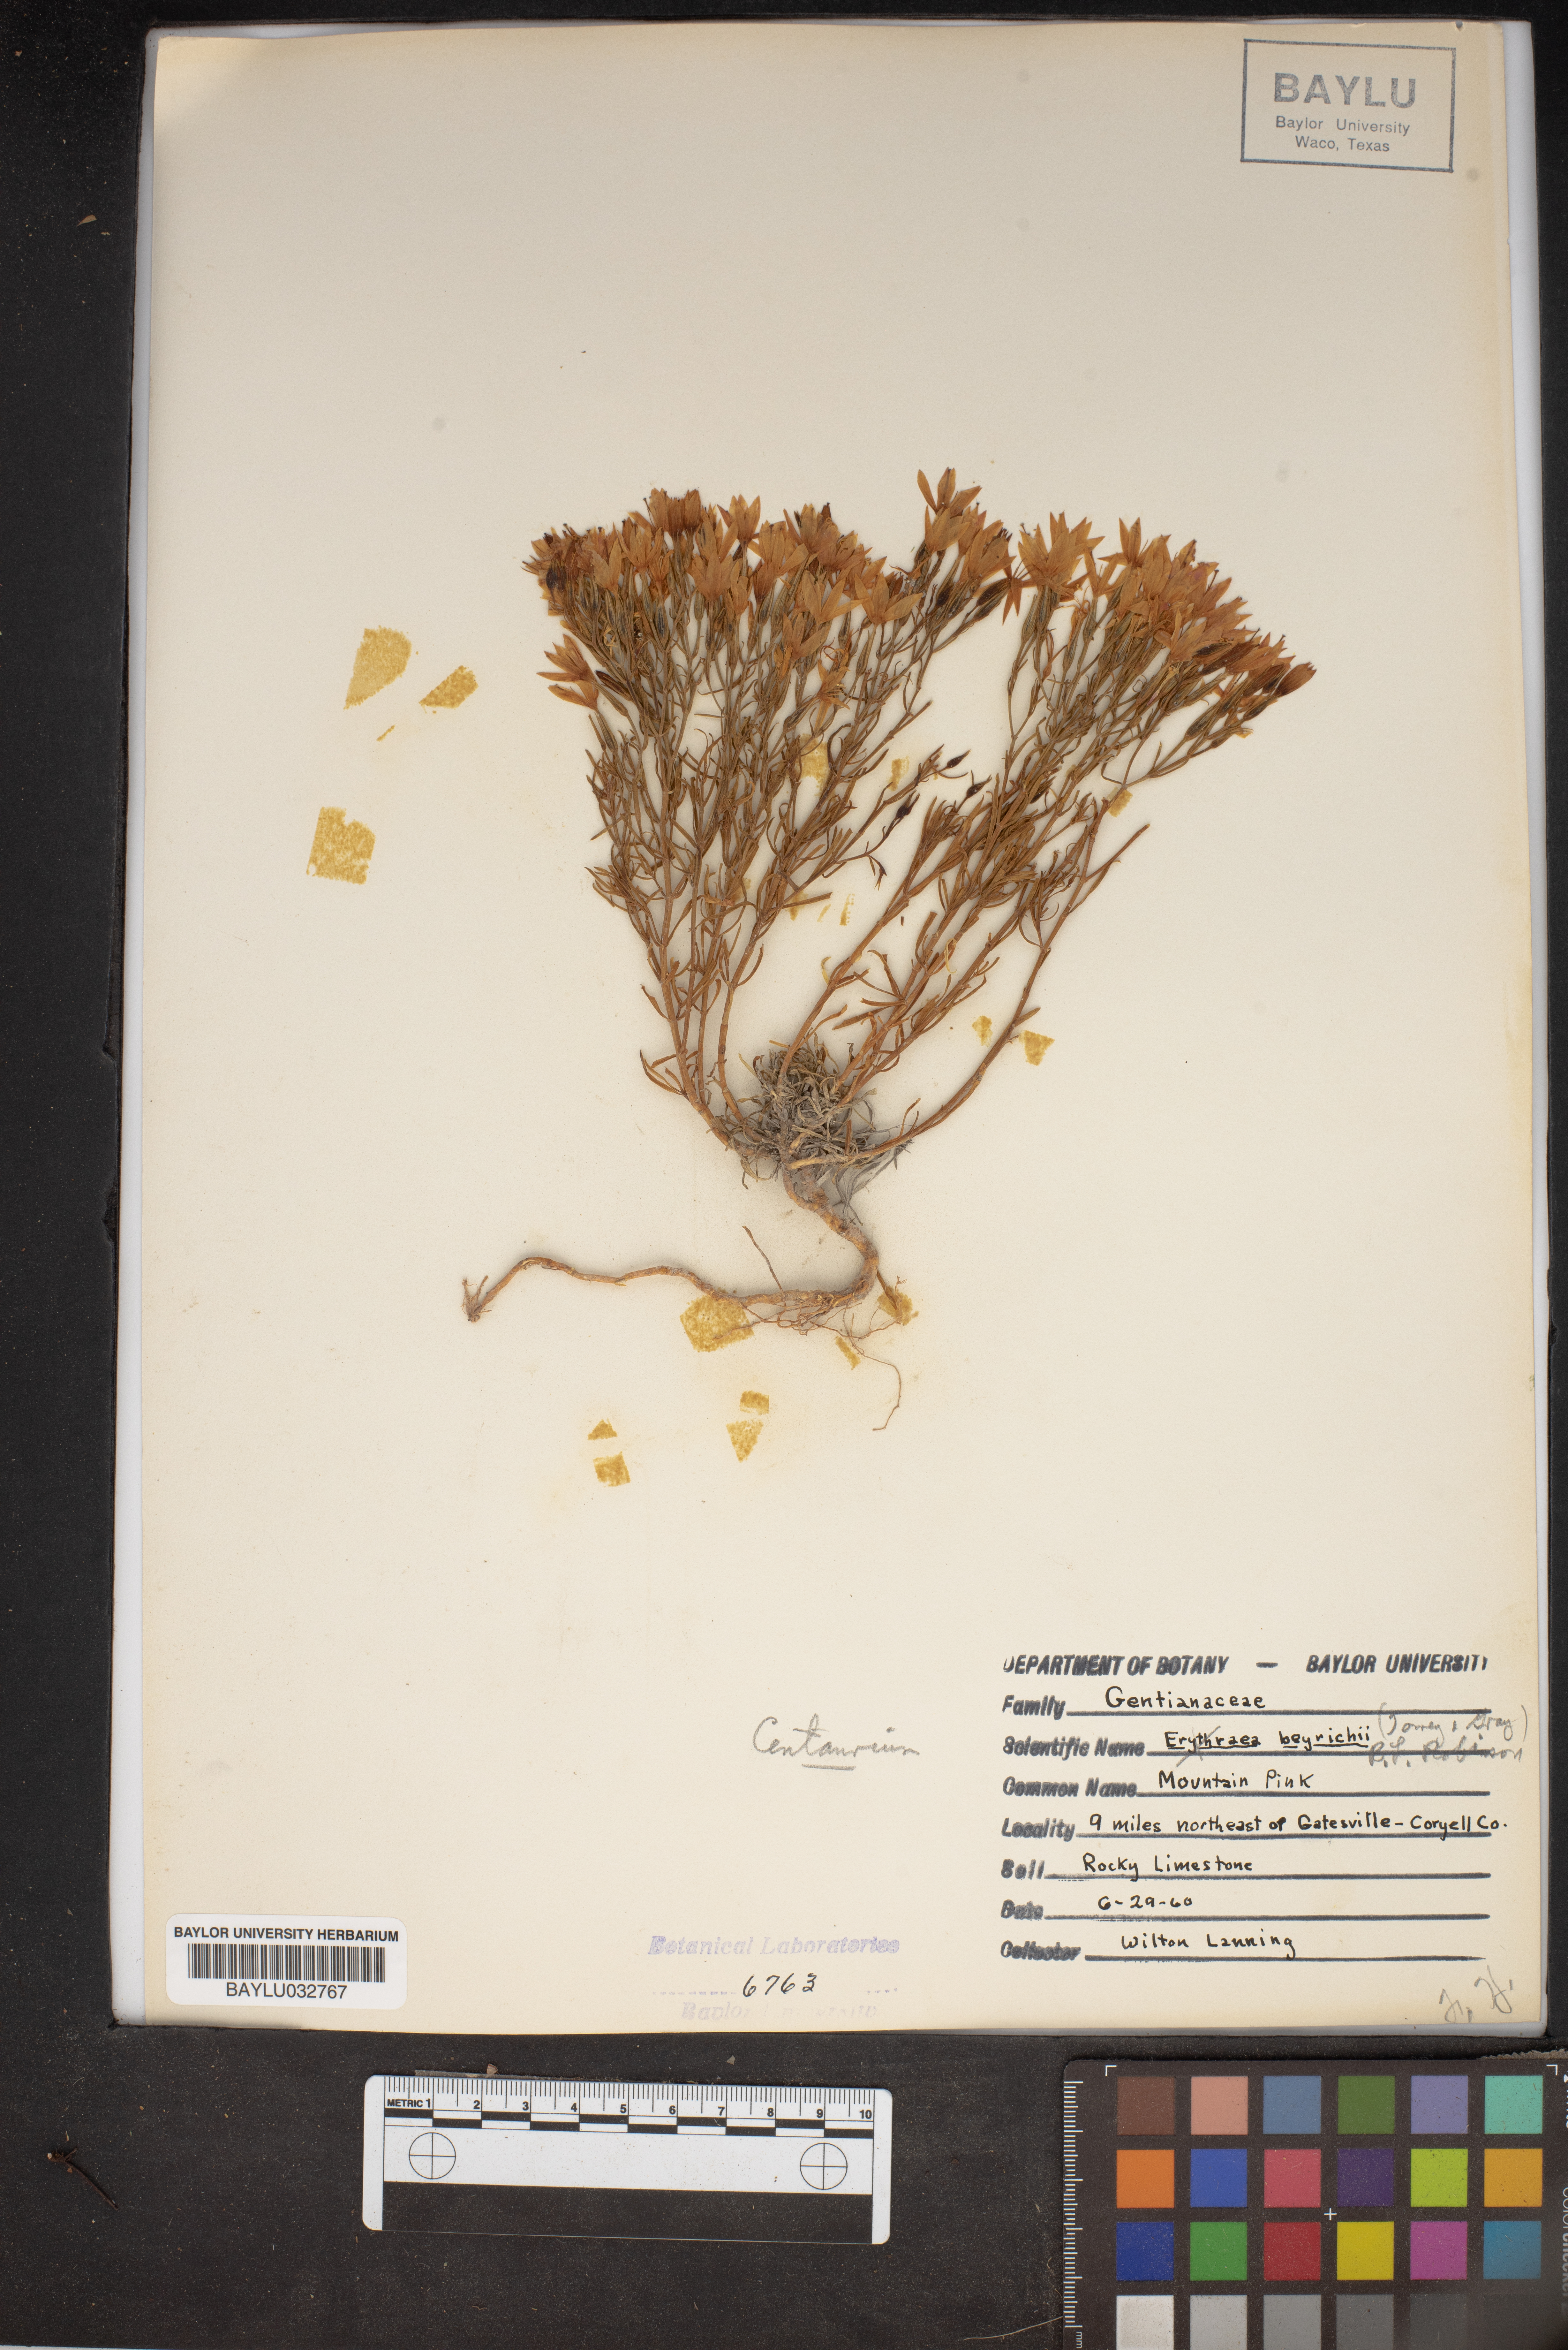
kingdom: Plantae
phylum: Tracheophyta
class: Magnoliopsida
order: Gentianales
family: Gentianaceae
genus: Zeltnera
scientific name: Zeltnera beyrichii
